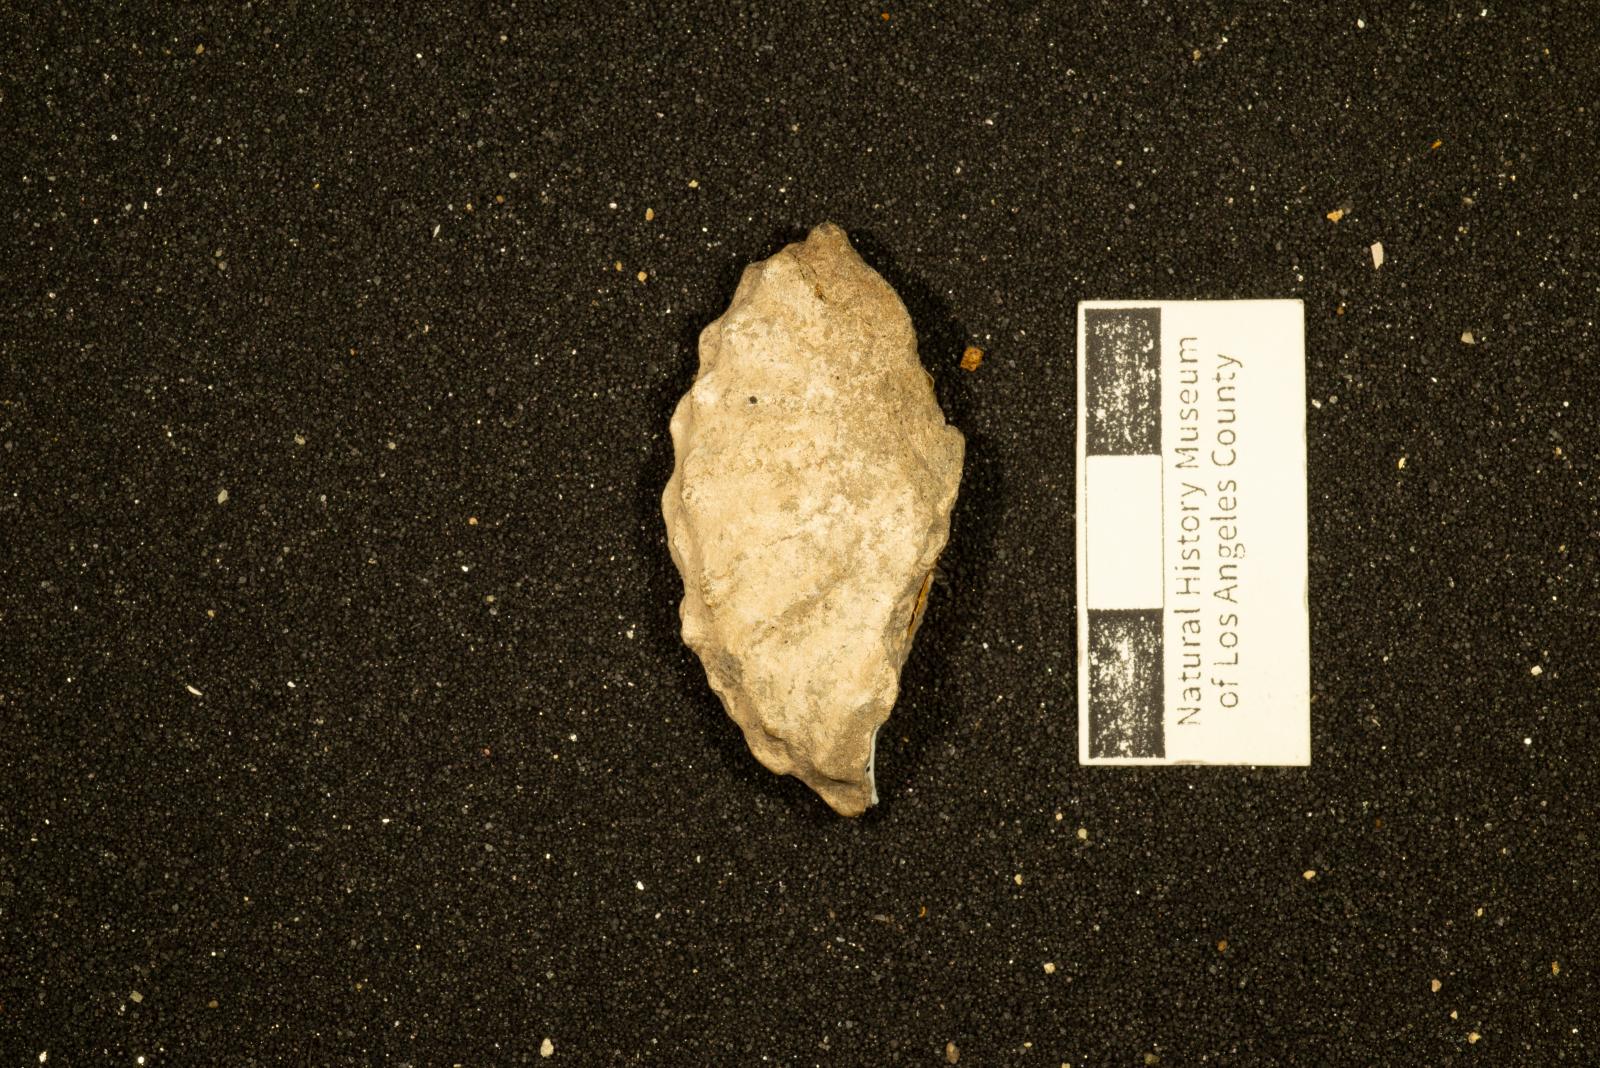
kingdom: Animalia
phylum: Mollusca
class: Cephalopoda
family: Collignoniceratidae
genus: Subprionocyclus
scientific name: Subprionocyclus
